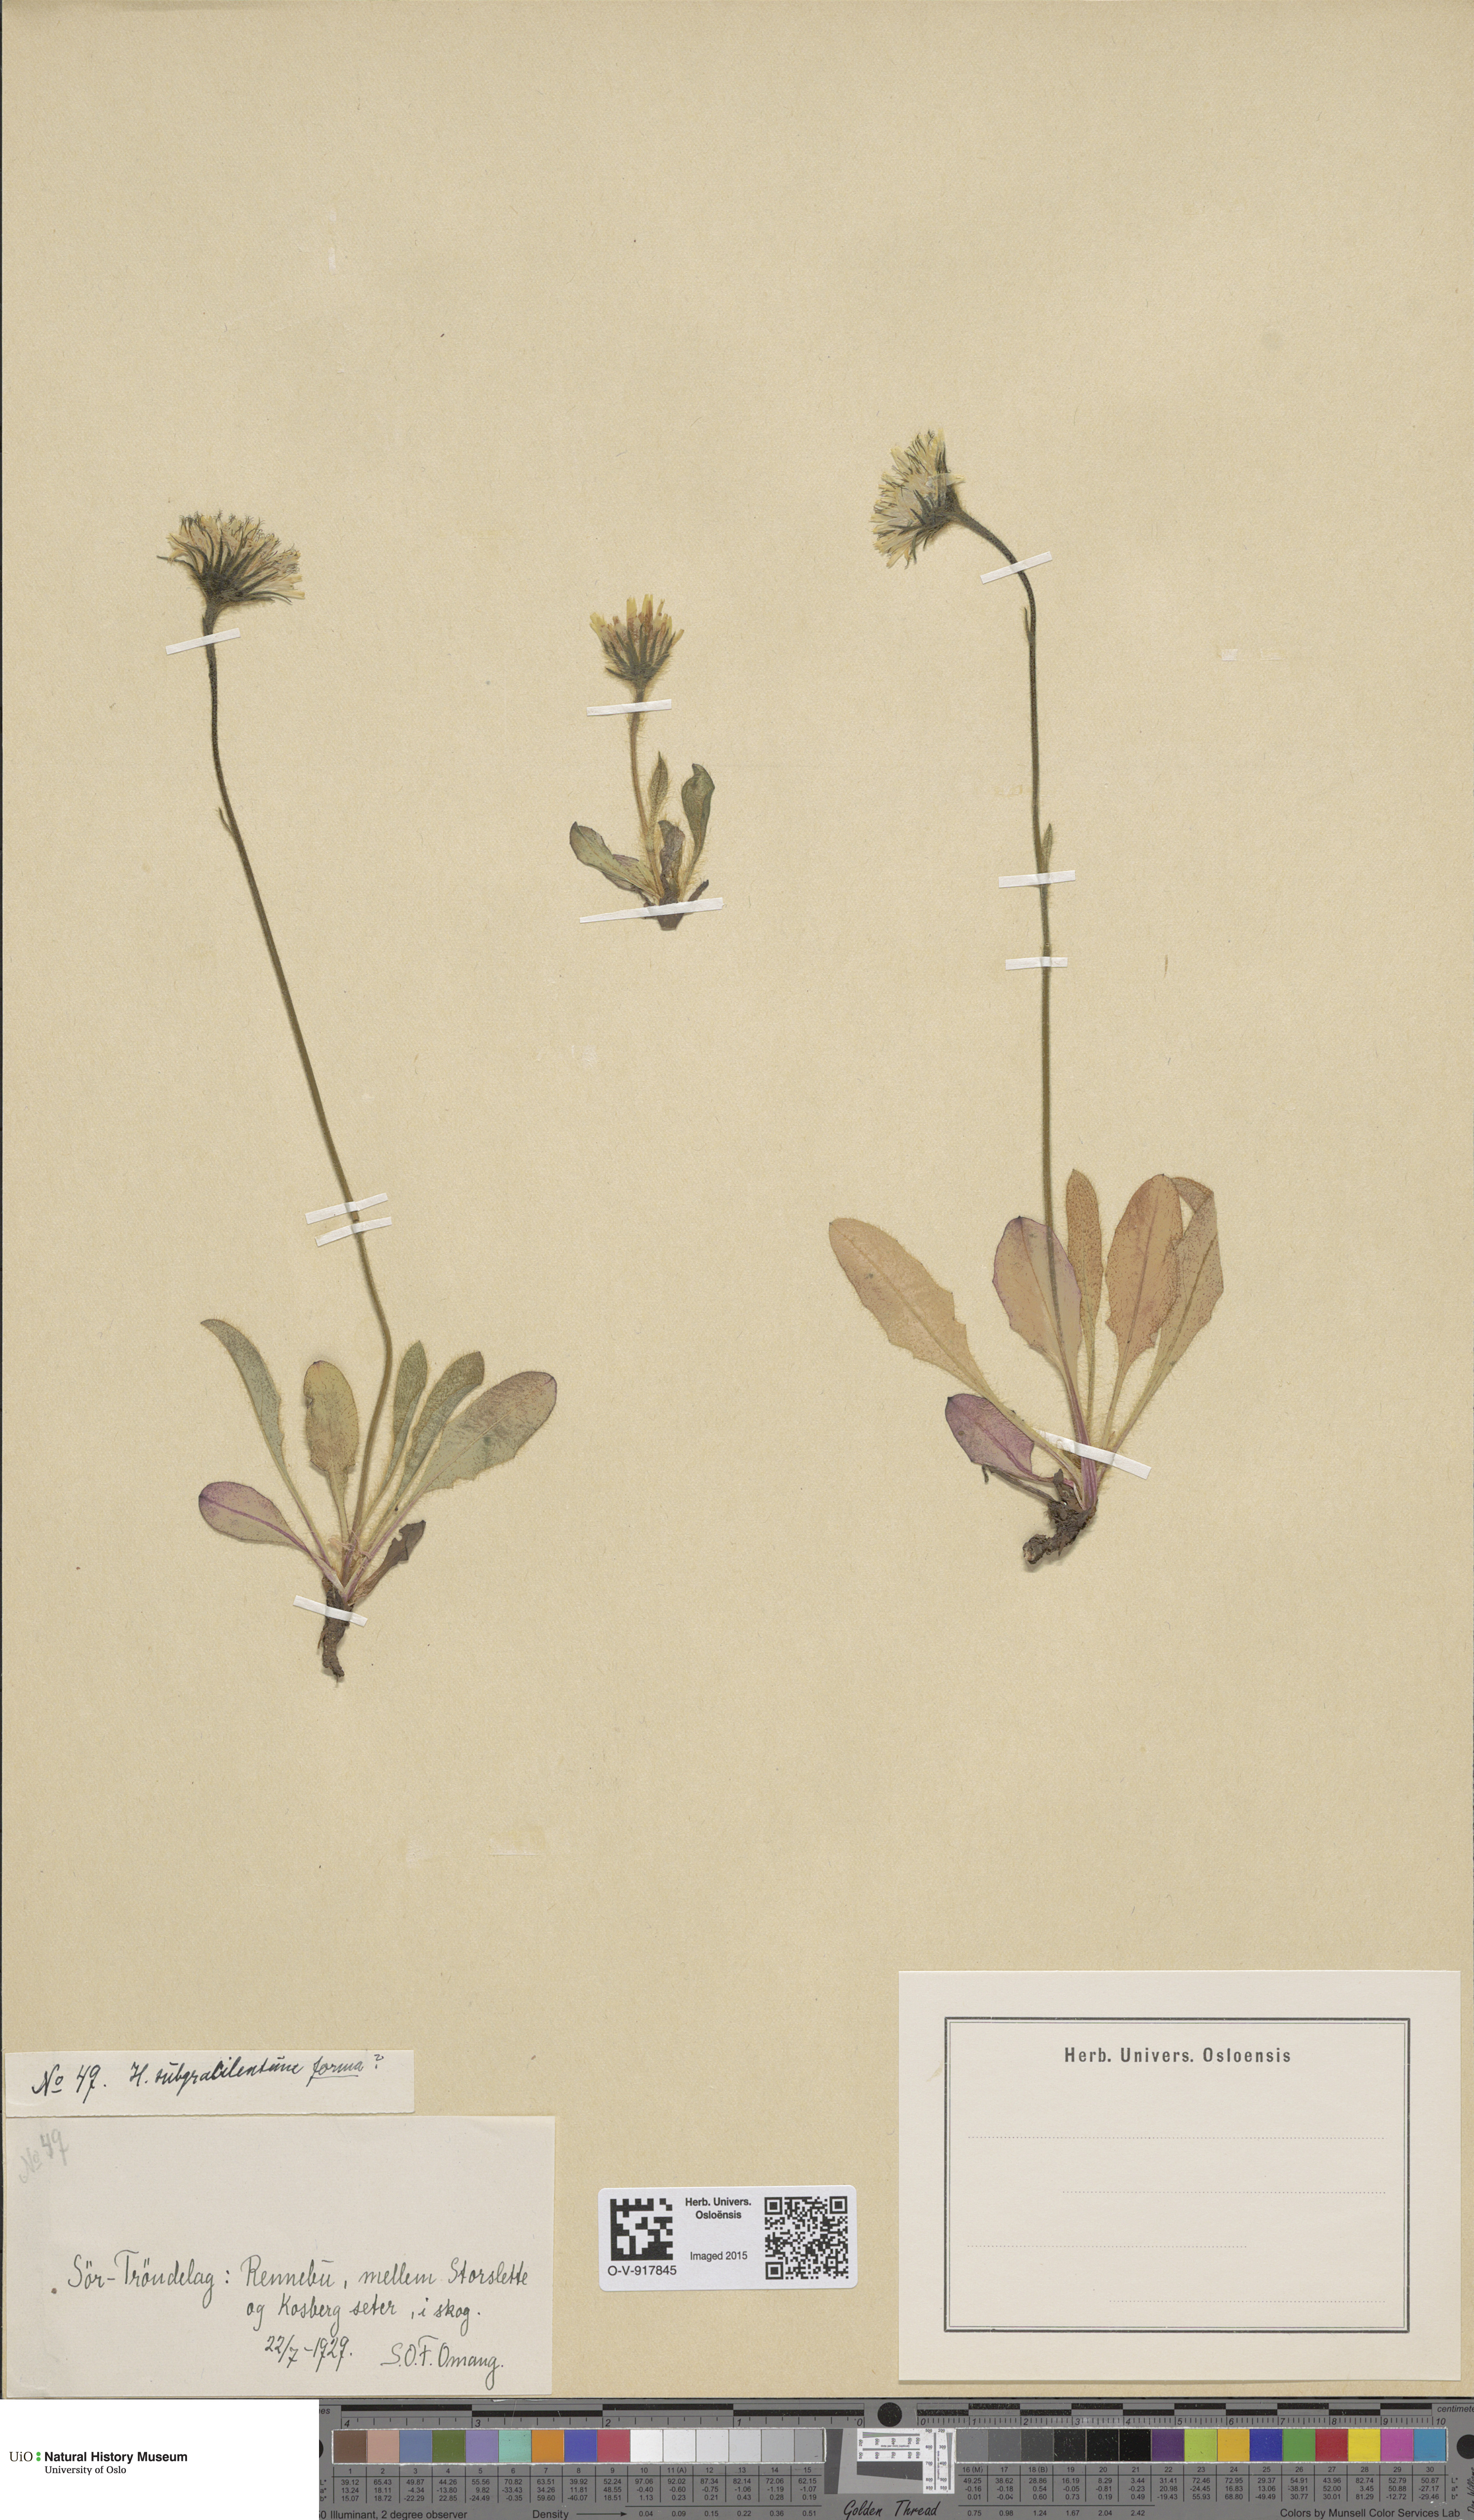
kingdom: Plantae
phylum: Tracheophyta
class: Magnoliopsida
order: Asterales
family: Asteraceae
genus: Hieracium
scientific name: Hieracium
